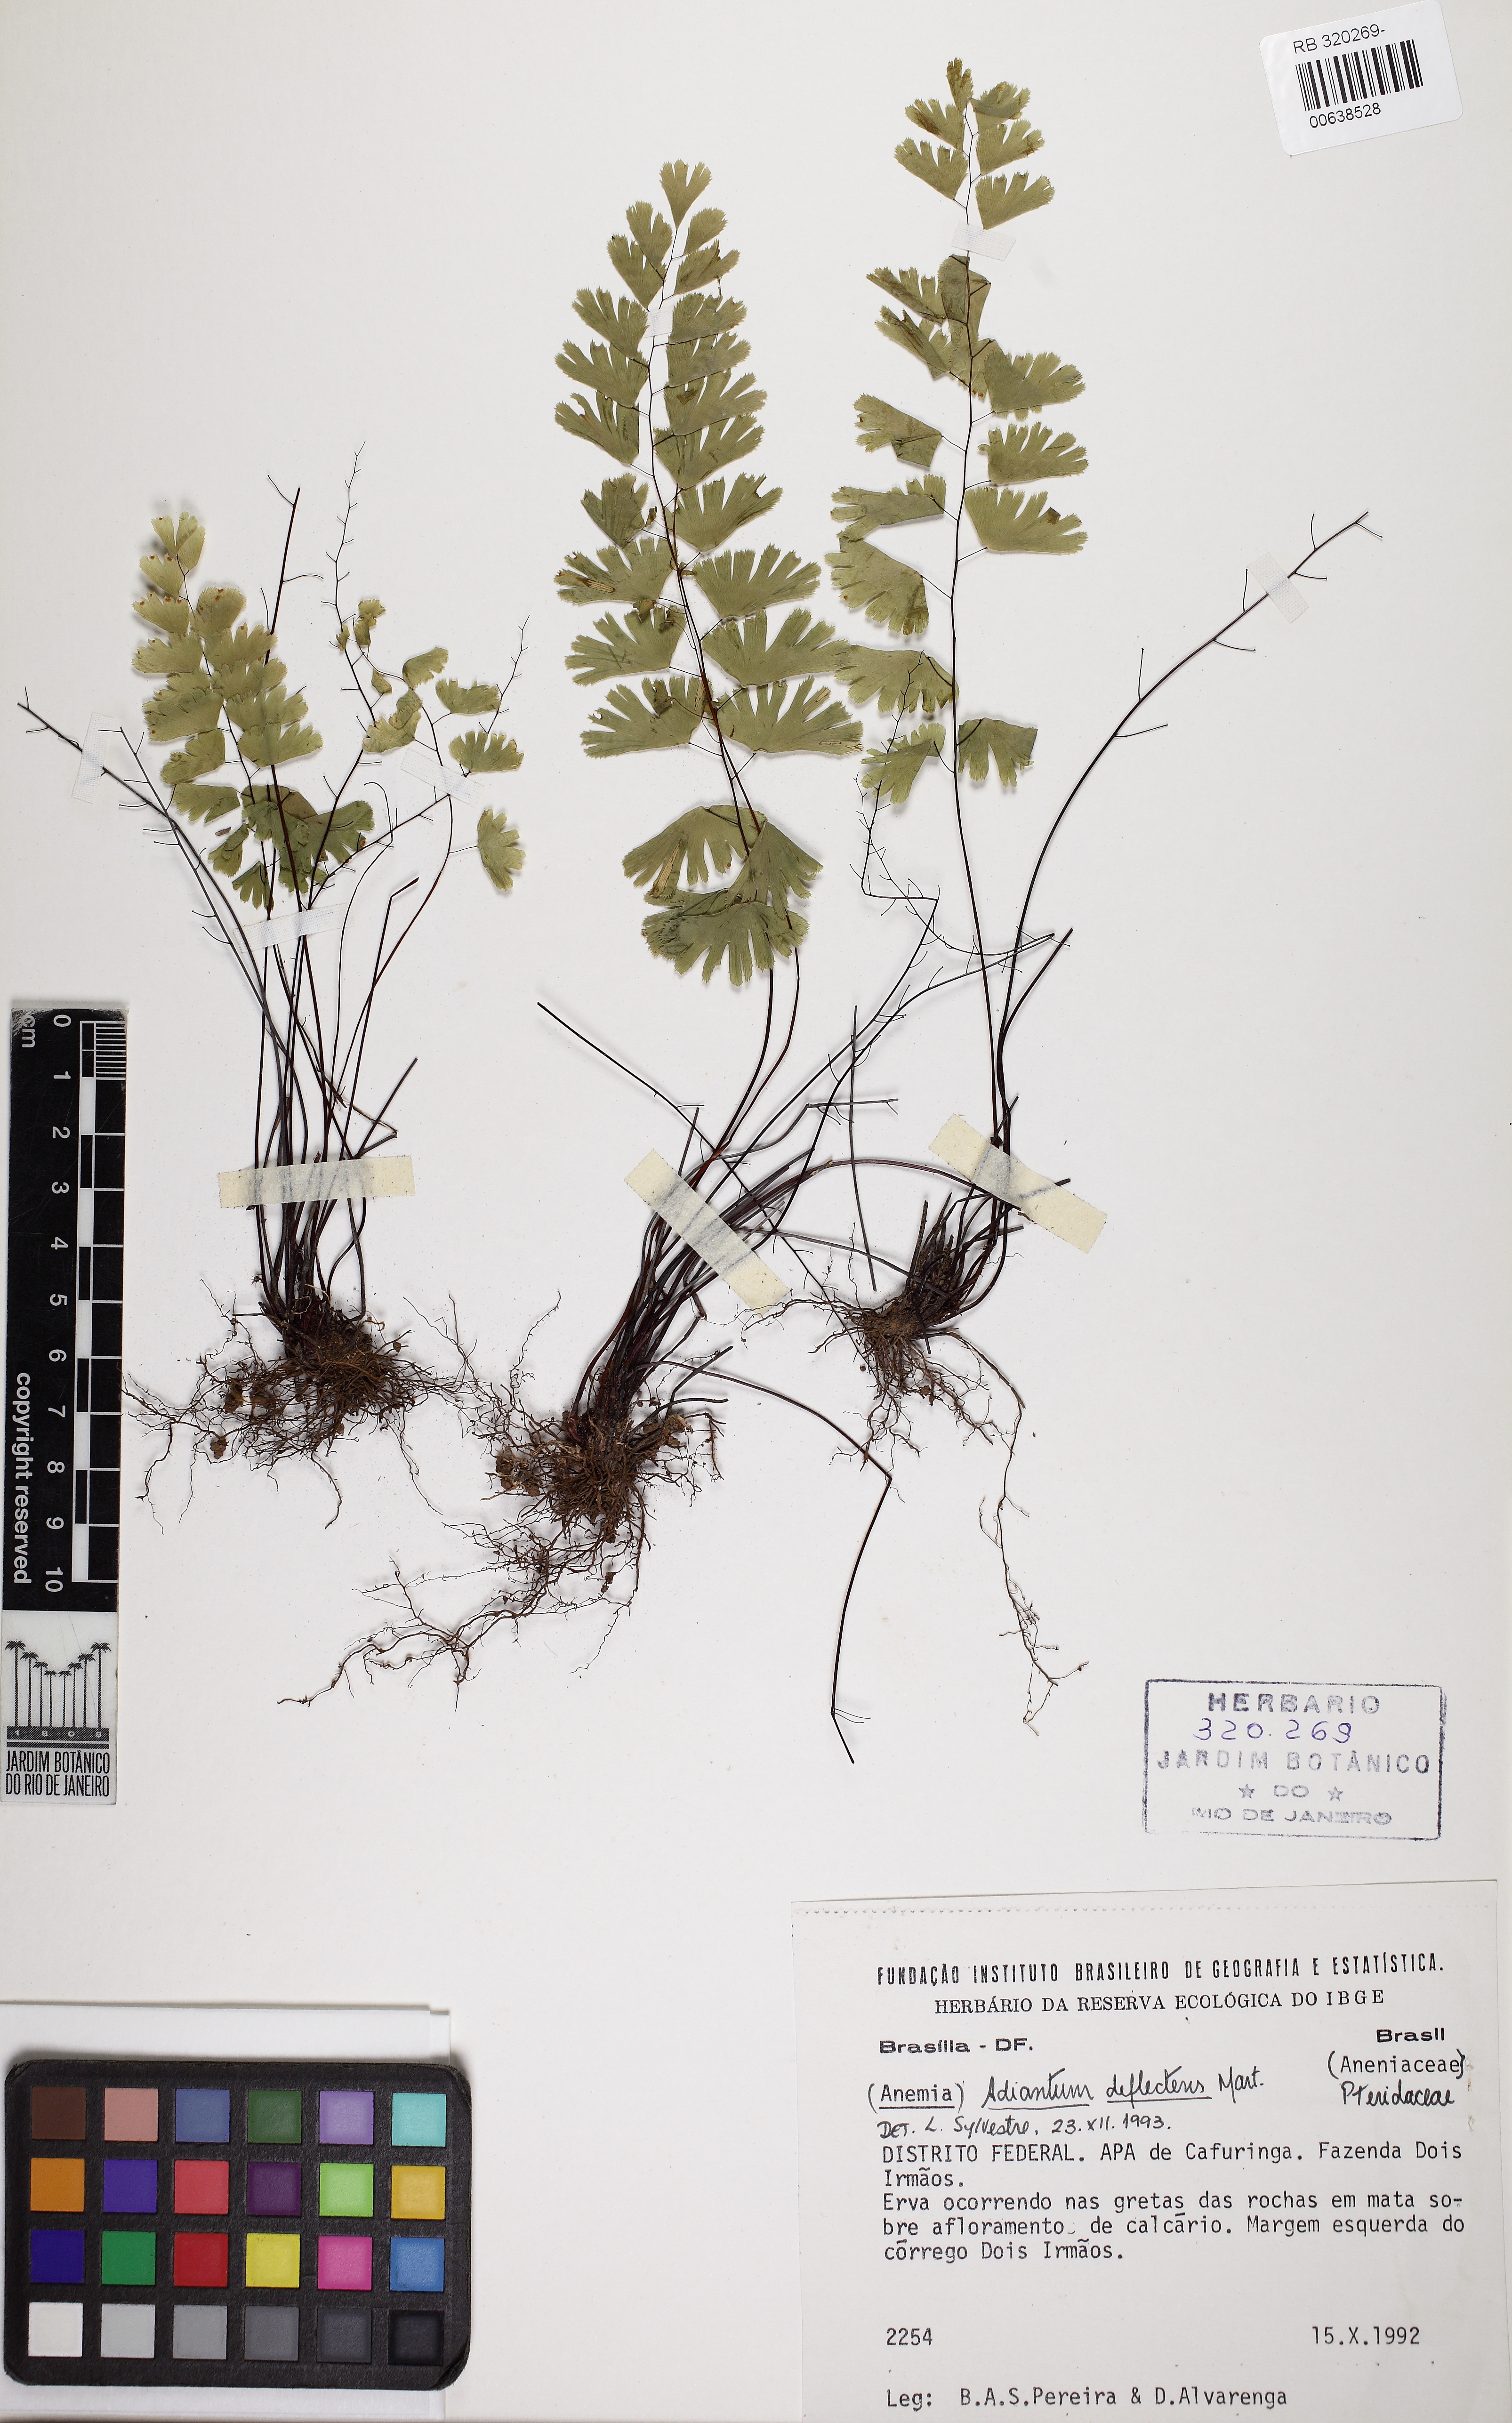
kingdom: Plantae
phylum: Tracheophyta
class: Polypodiopsida
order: Polypodiales
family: Pteridaceae
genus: Adiantum
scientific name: Adiantum deflectens
